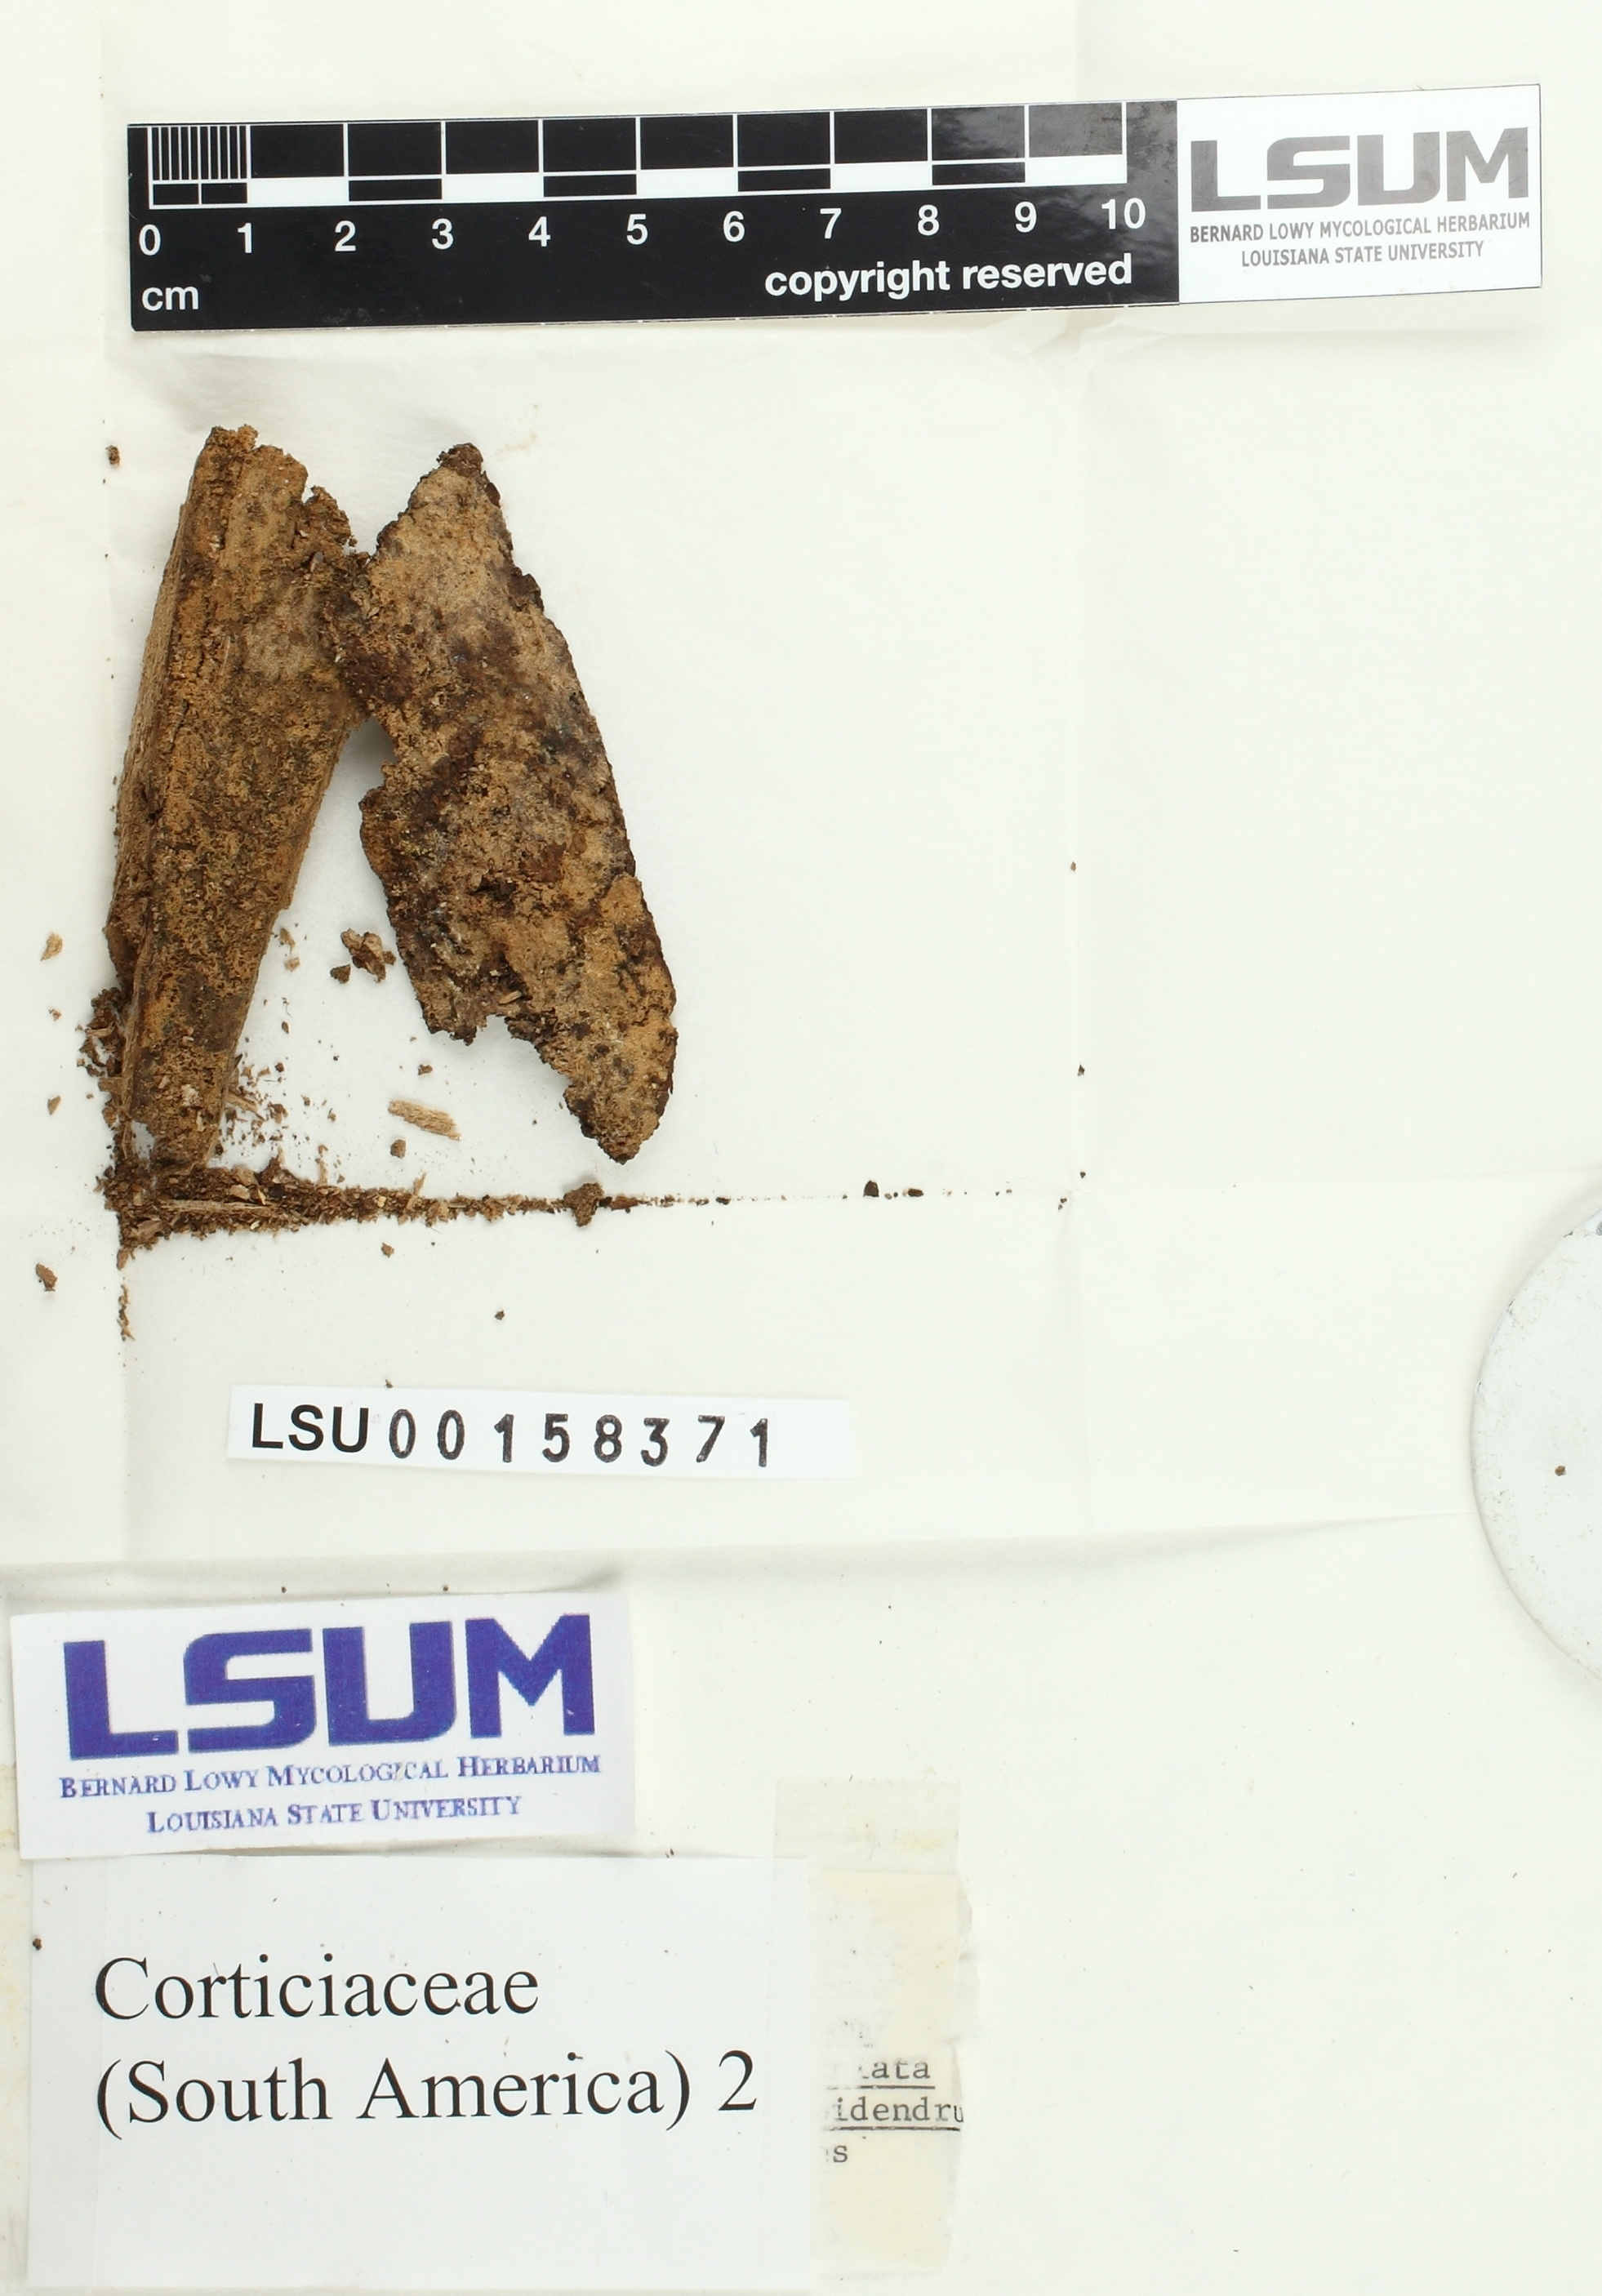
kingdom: Fungi
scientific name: Fungi
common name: Fungi
